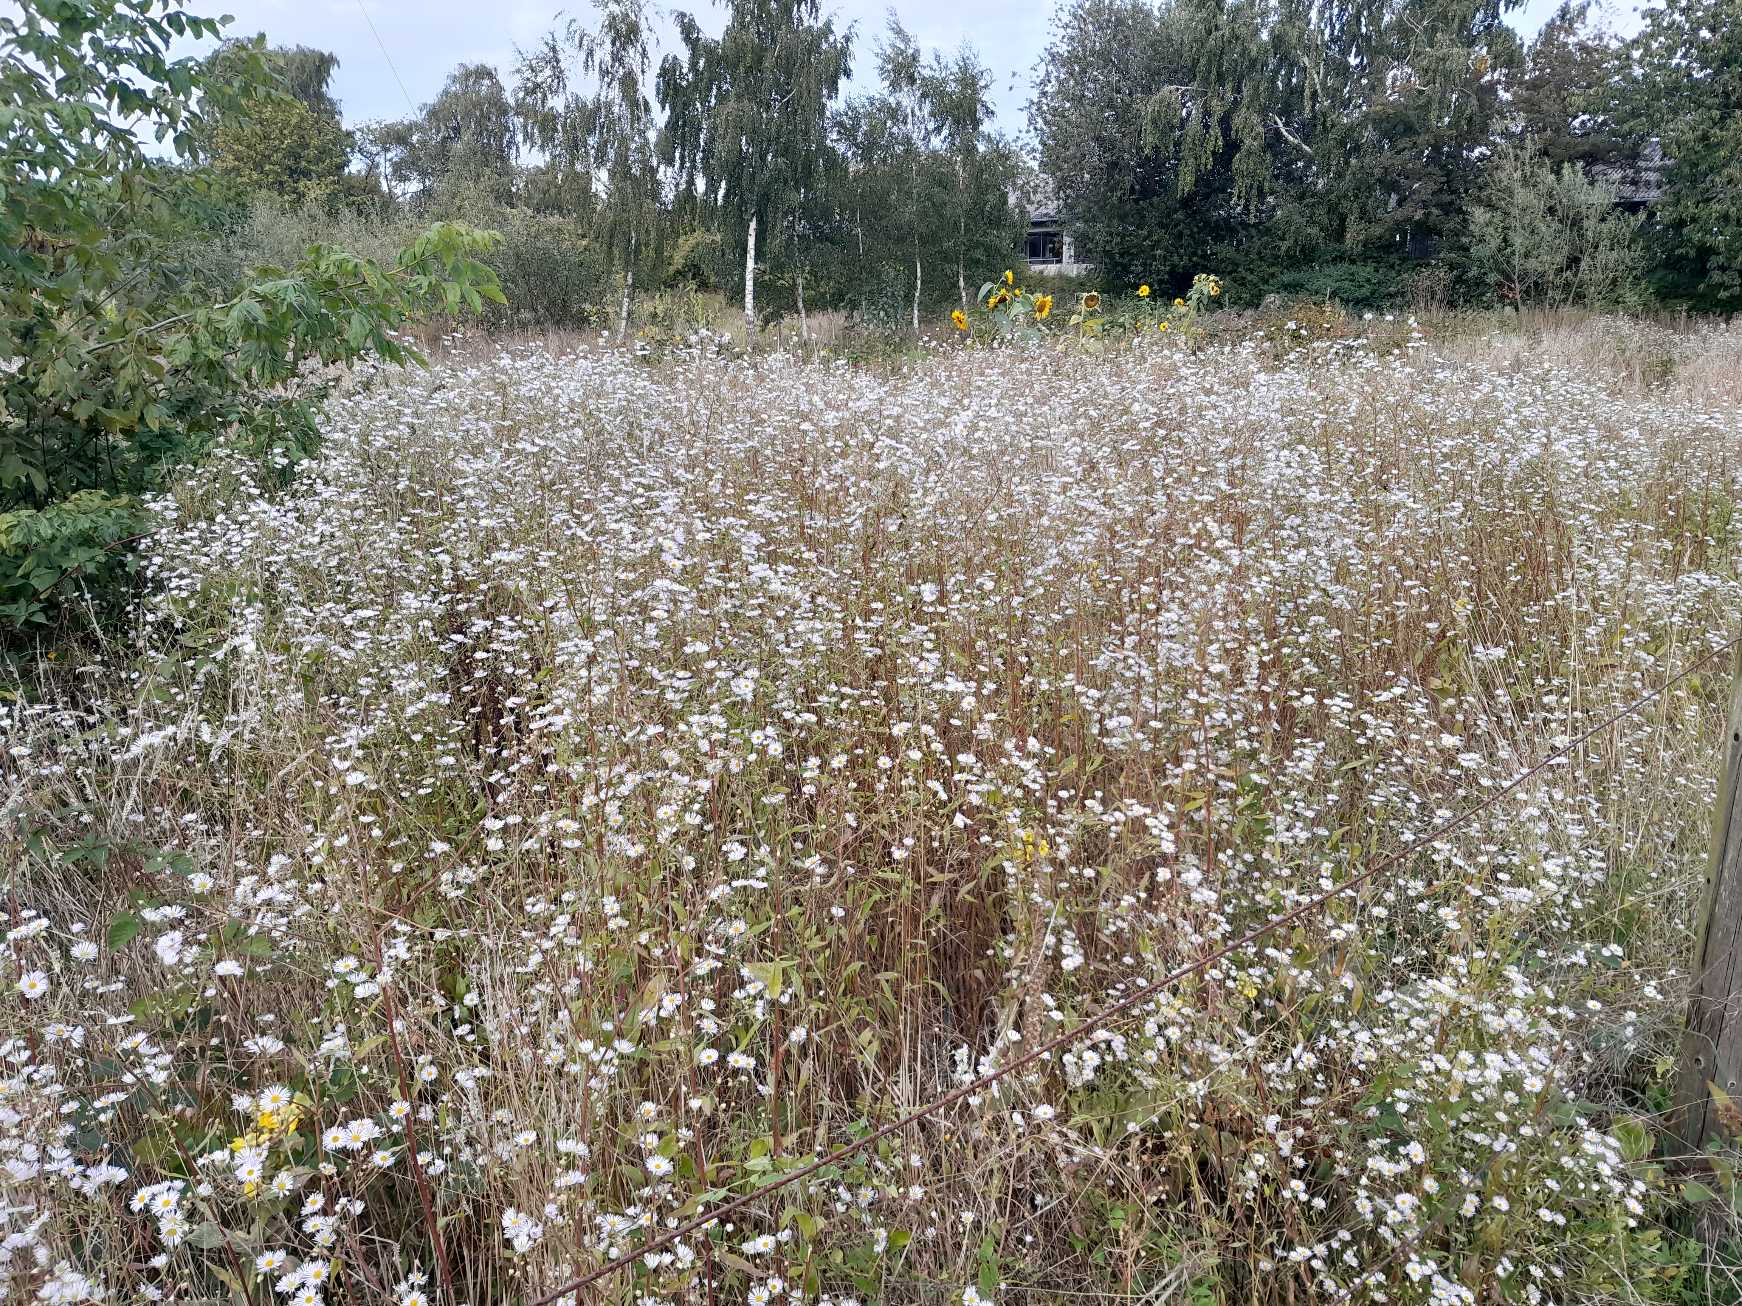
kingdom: Plantae
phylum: Tracheophyta
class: Magnoliopsida
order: Asterales
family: Asteraceae
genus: Erigeron
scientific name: Erigeron annuus
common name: Smalstråle
